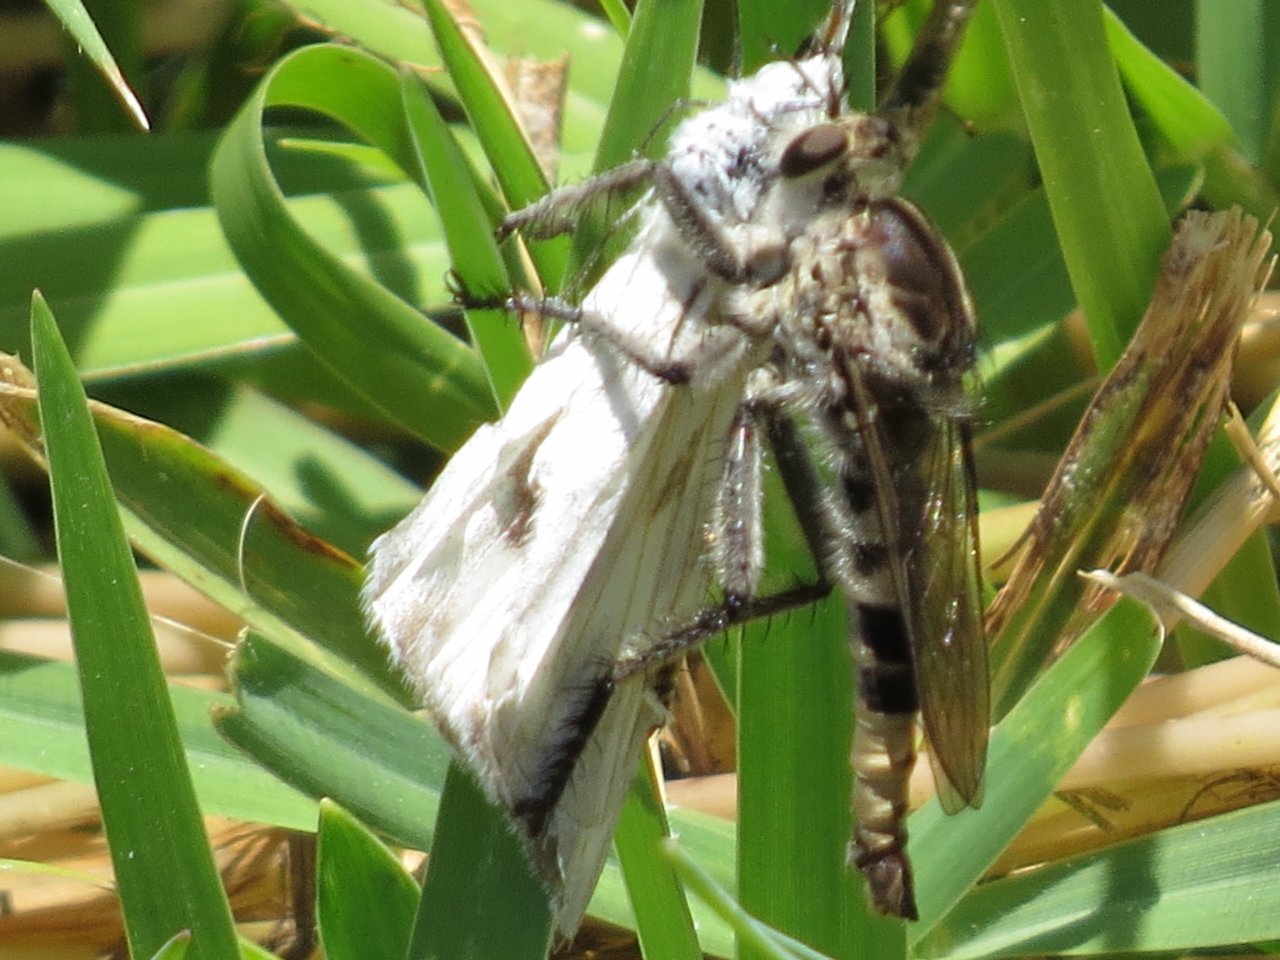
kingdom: Animalia
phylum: Arthropoda
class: Insecta
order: Lepidoptera
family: Pieridae
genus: Pontia
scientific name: Pontia protodice
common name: Checkered White
